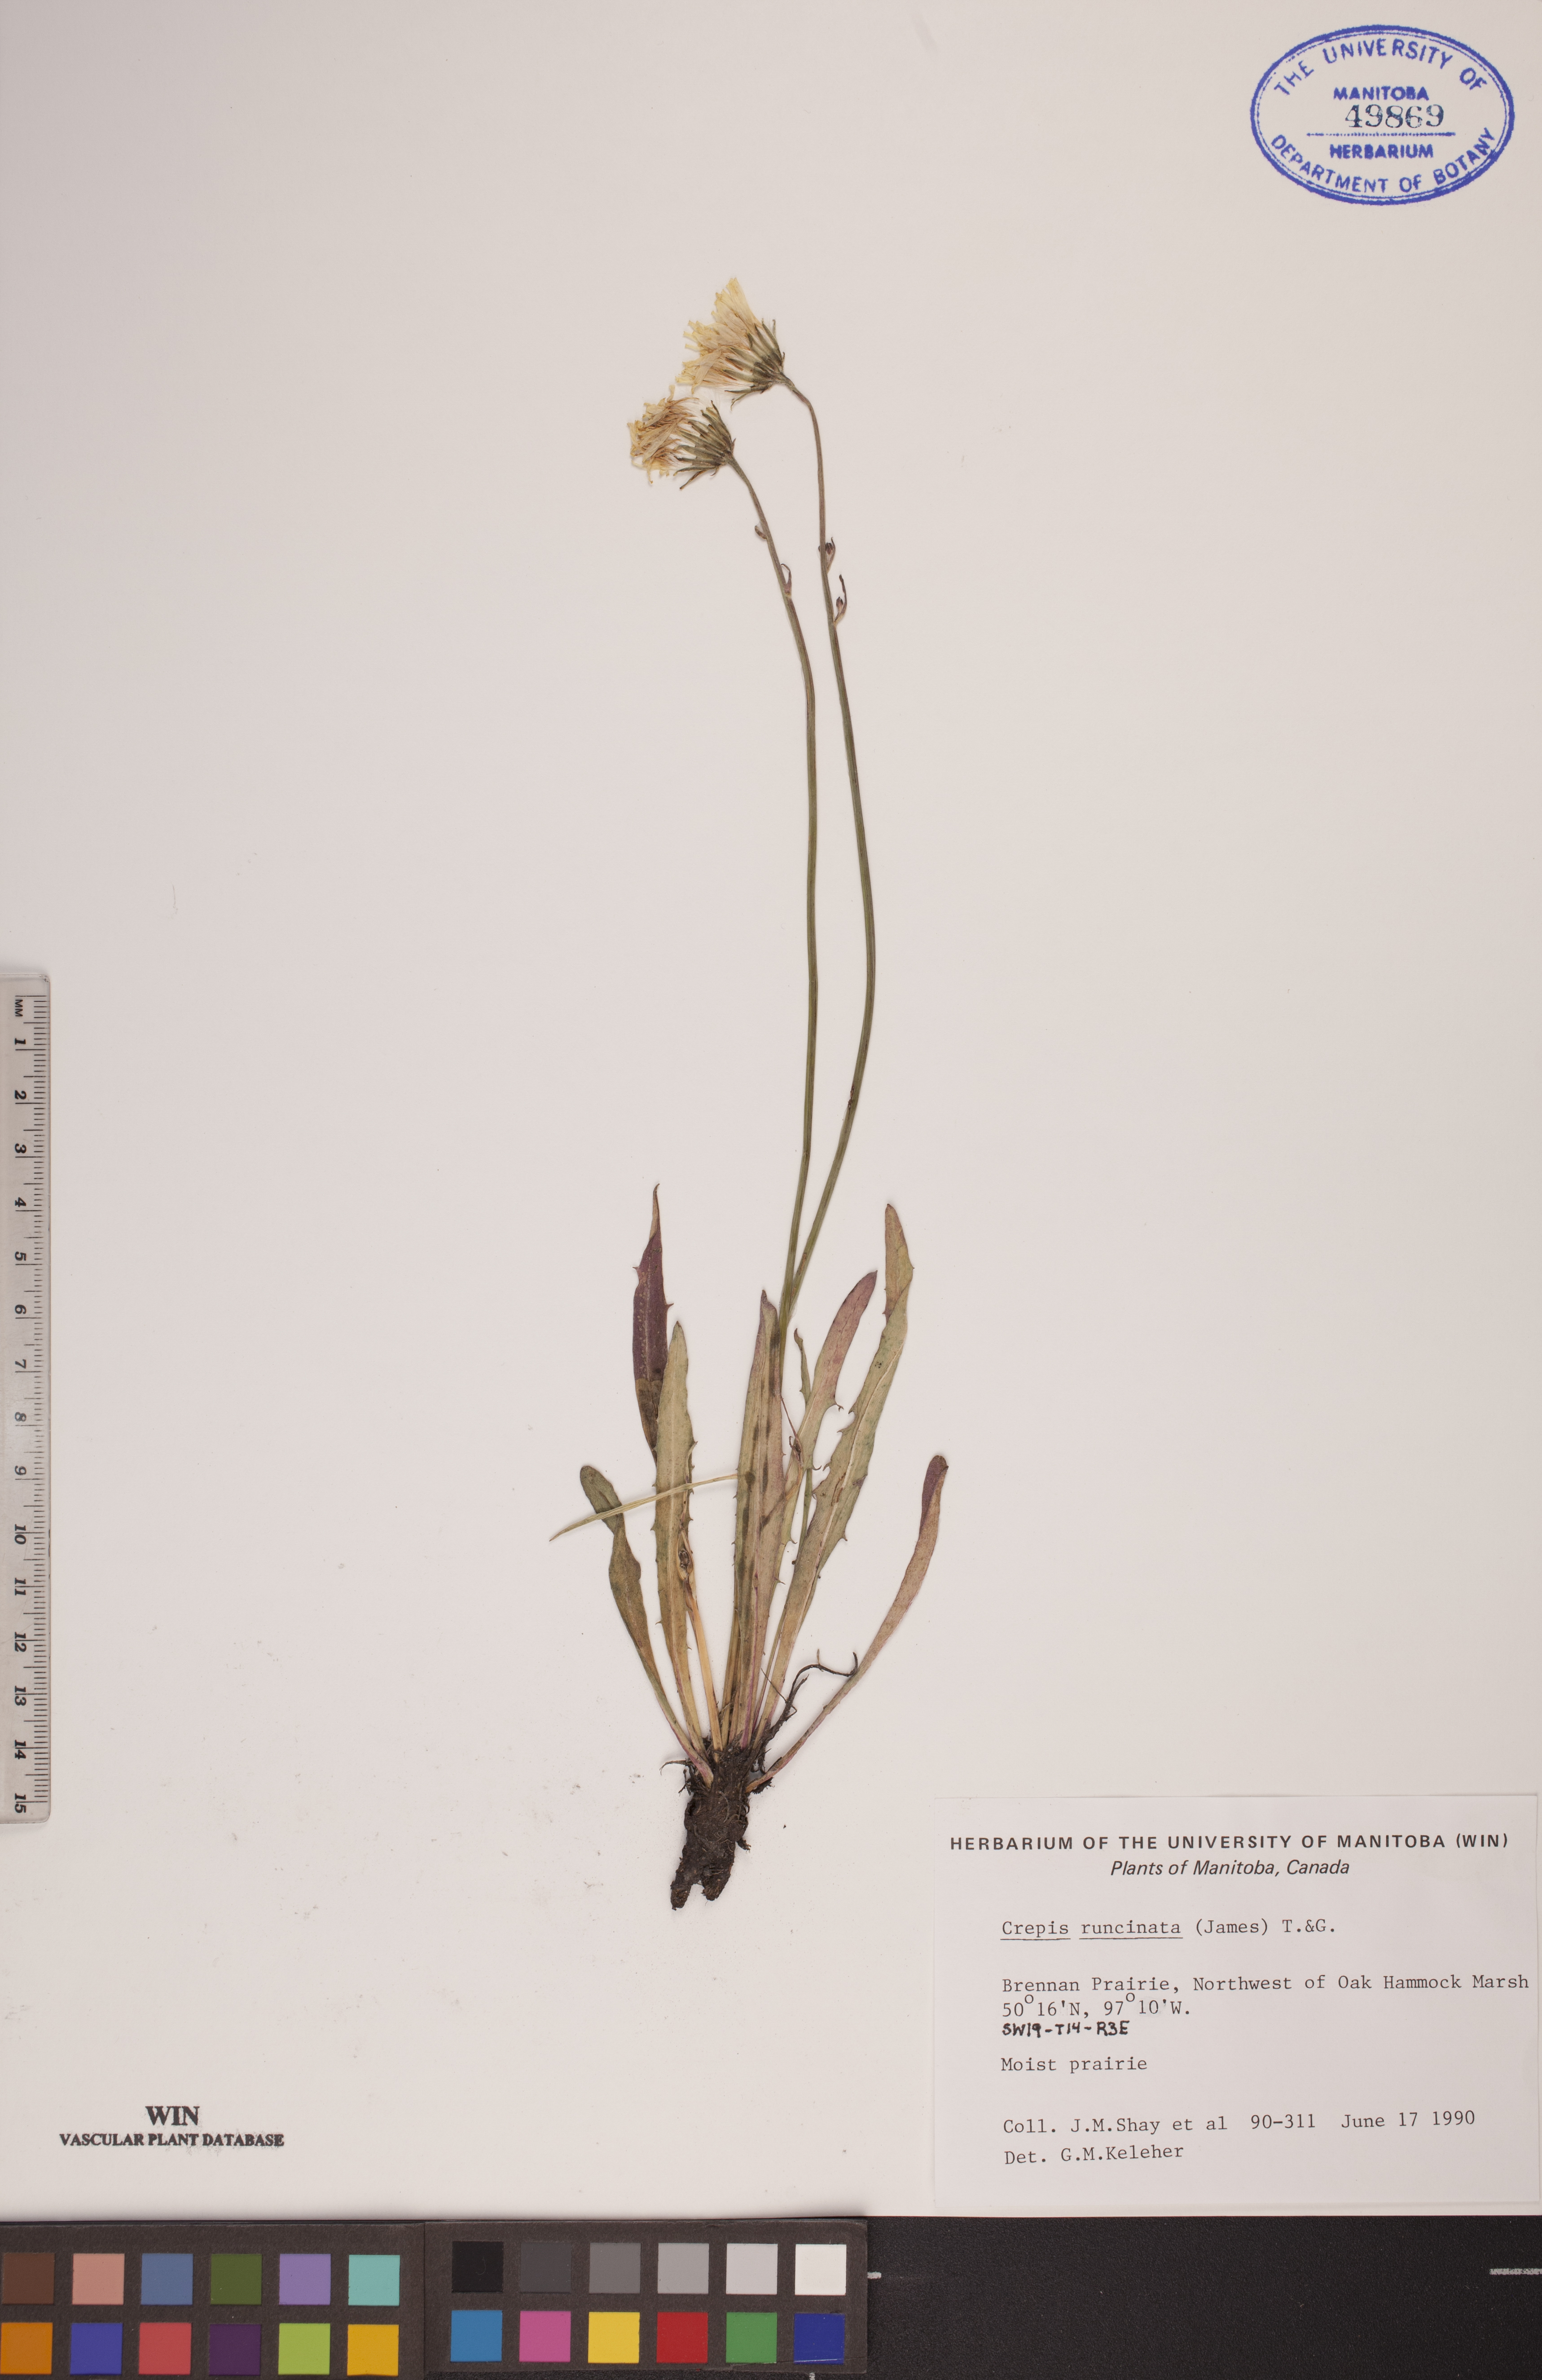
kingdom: Plantae
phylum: Tracheophyta
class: Magnoliopsida
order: Asterales
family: Asteraceae
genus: Crepis
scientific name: Crepis runcinata
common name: Dandelion hawksbeard
